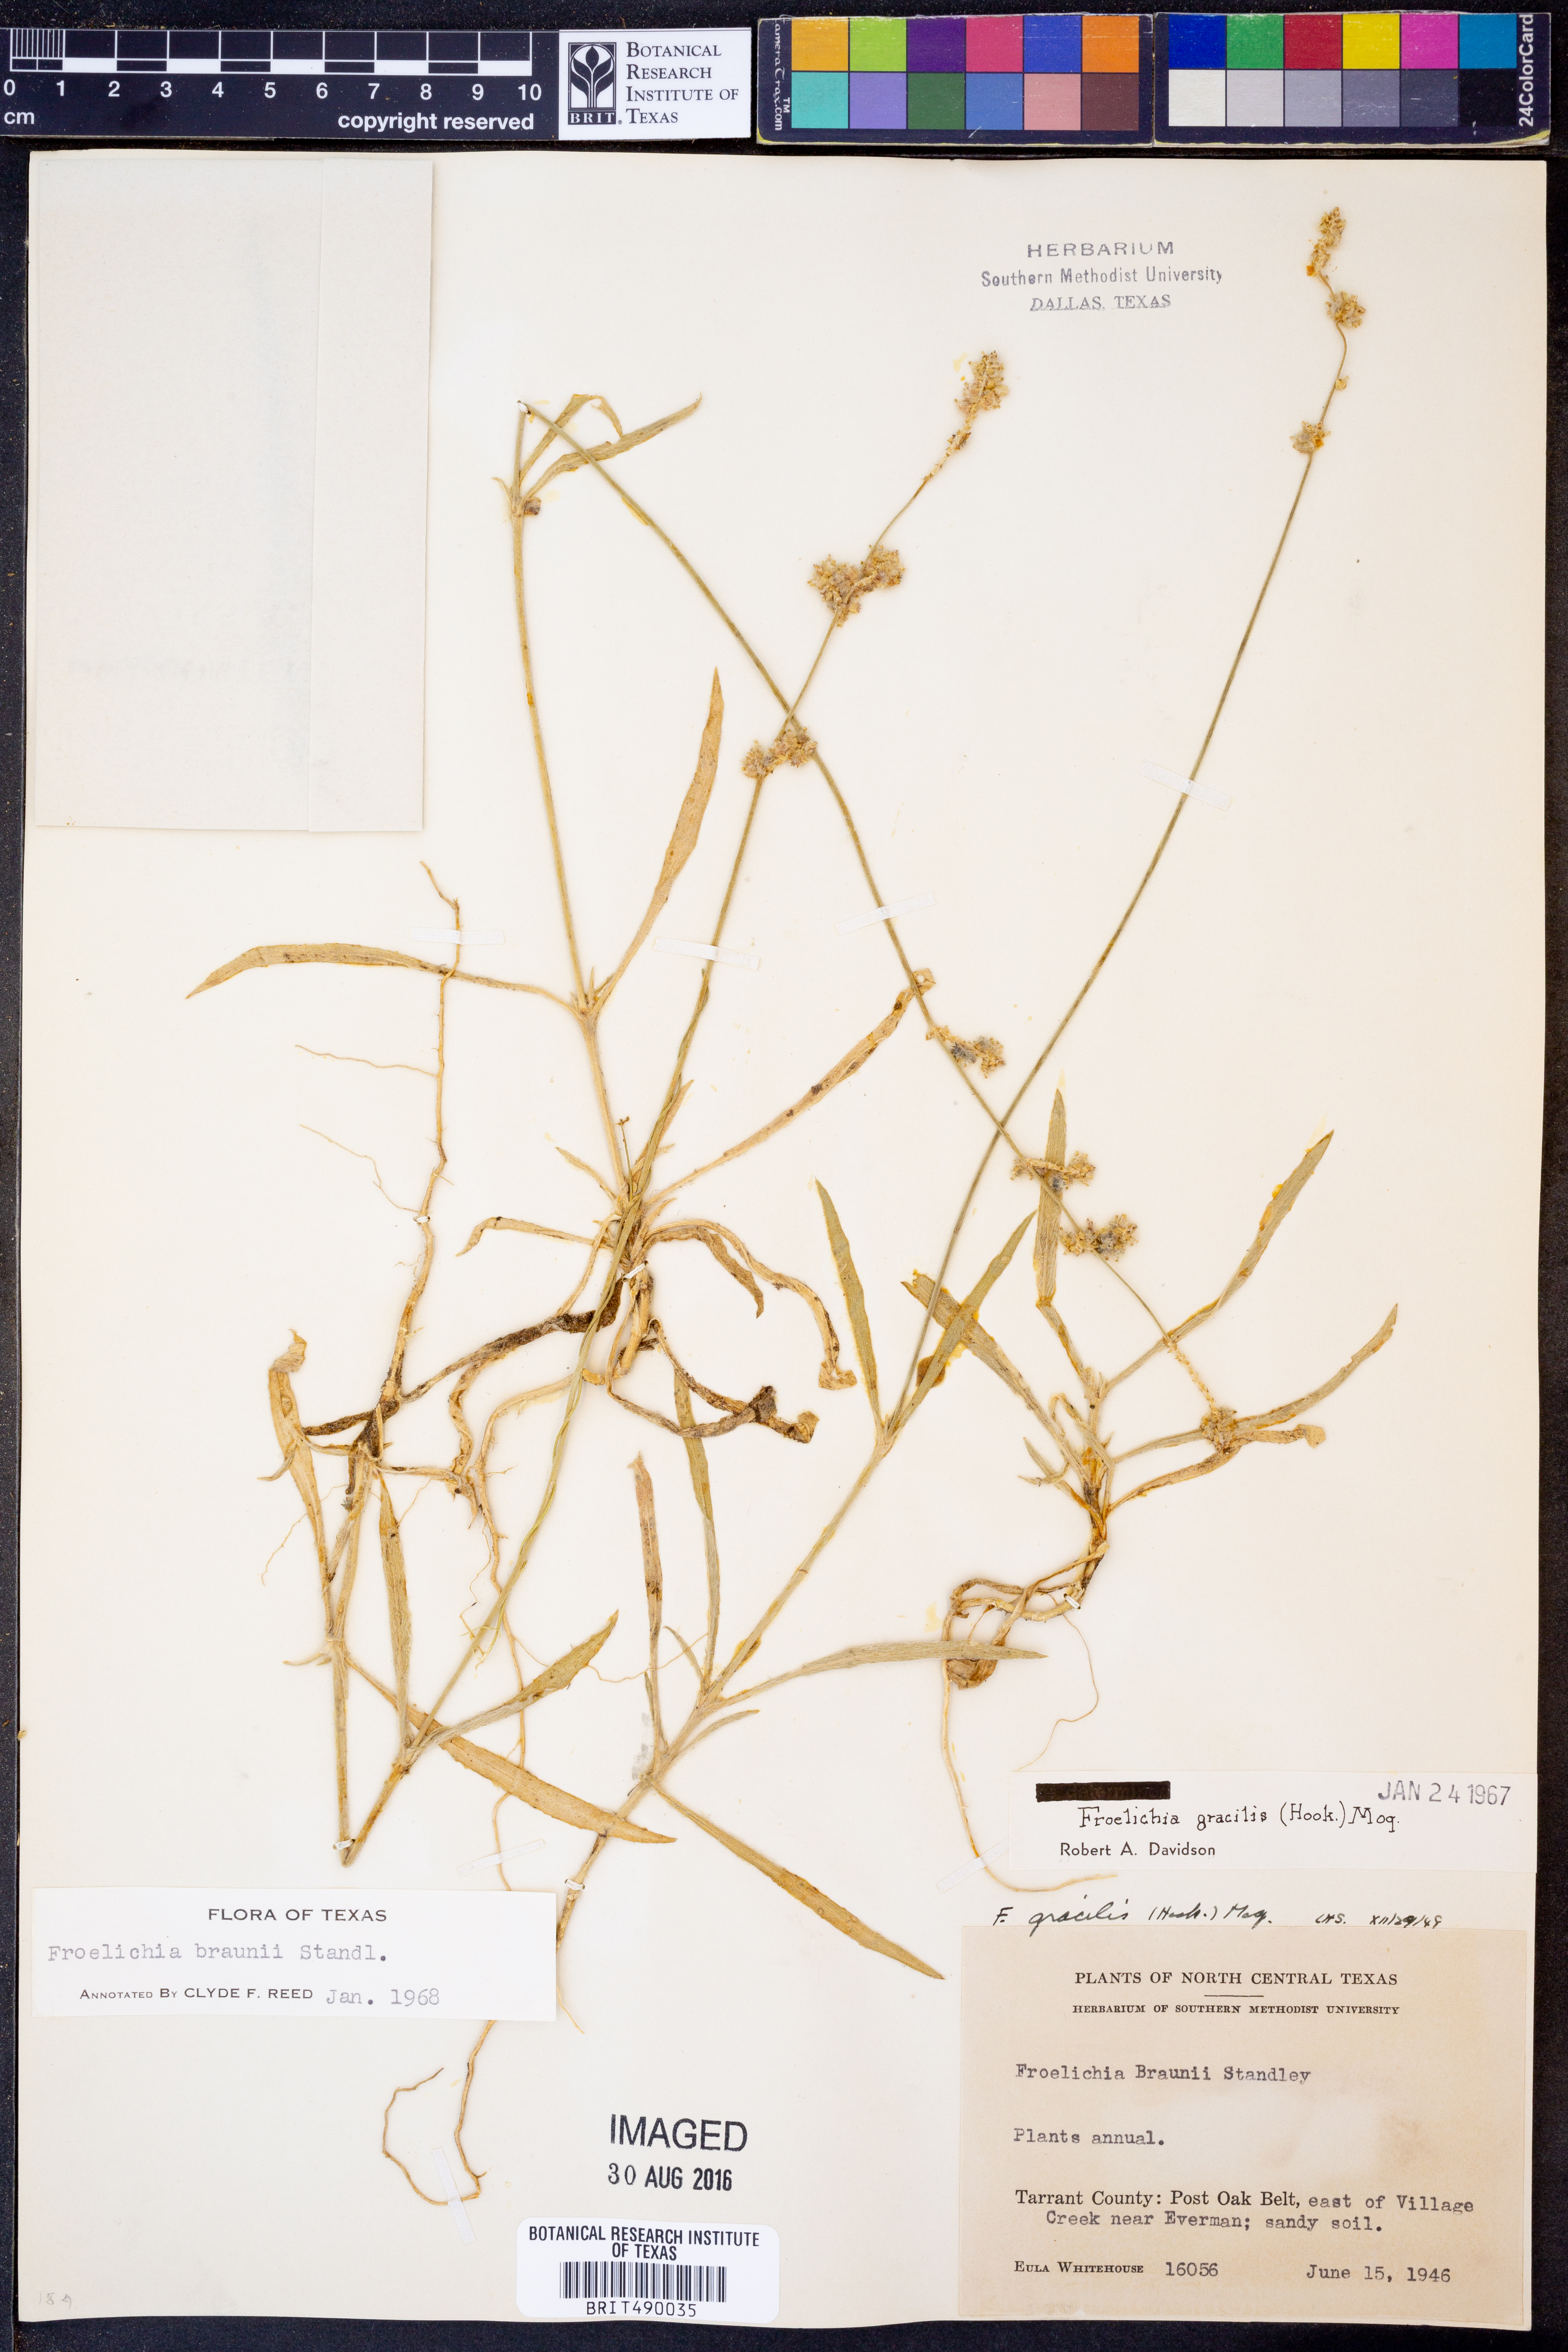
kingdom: Plantae
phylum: Tracheophyta
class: Magnoliopsida
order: Caryophyllales
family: Amaranthaceae
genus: Froelichia
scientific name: Froelichia gracilis
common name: Slender cottonweed
